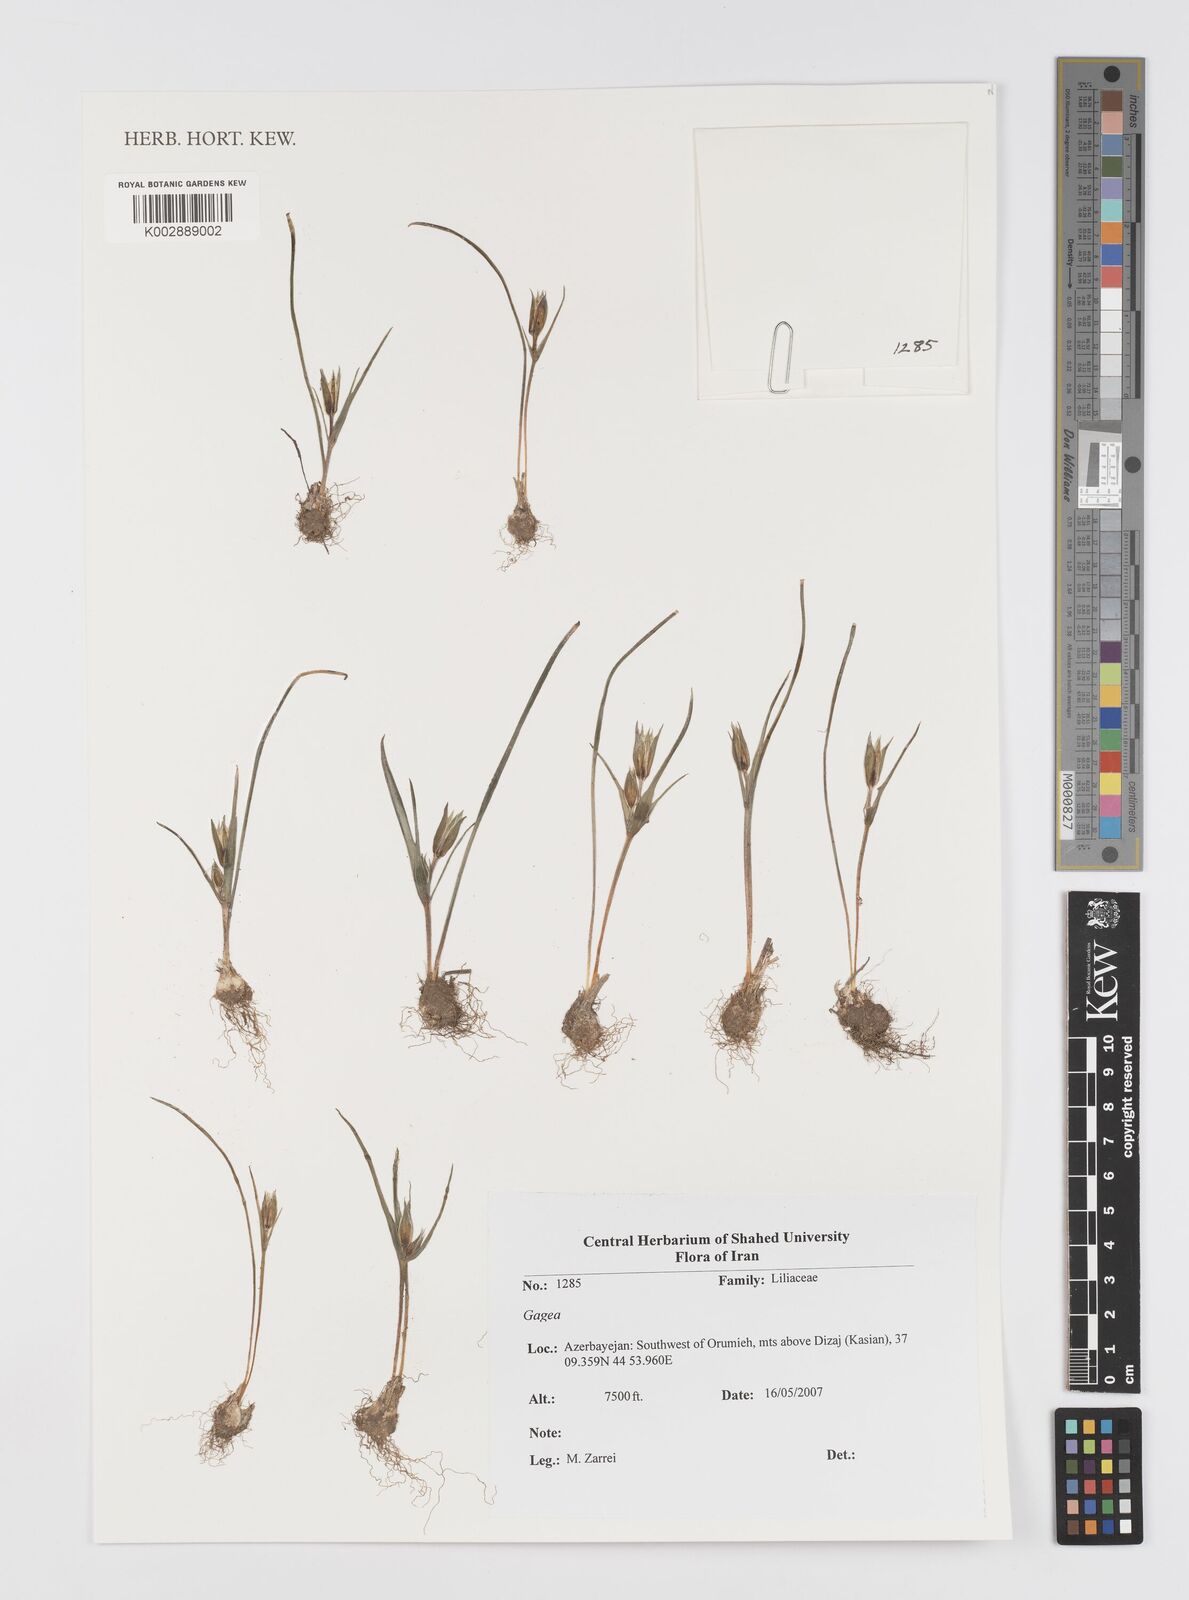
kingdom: Plantae
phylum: Tracheophyta
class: Liliopsida
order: Liliales
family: Liliaceae
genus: Gagea
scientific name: Gagea
